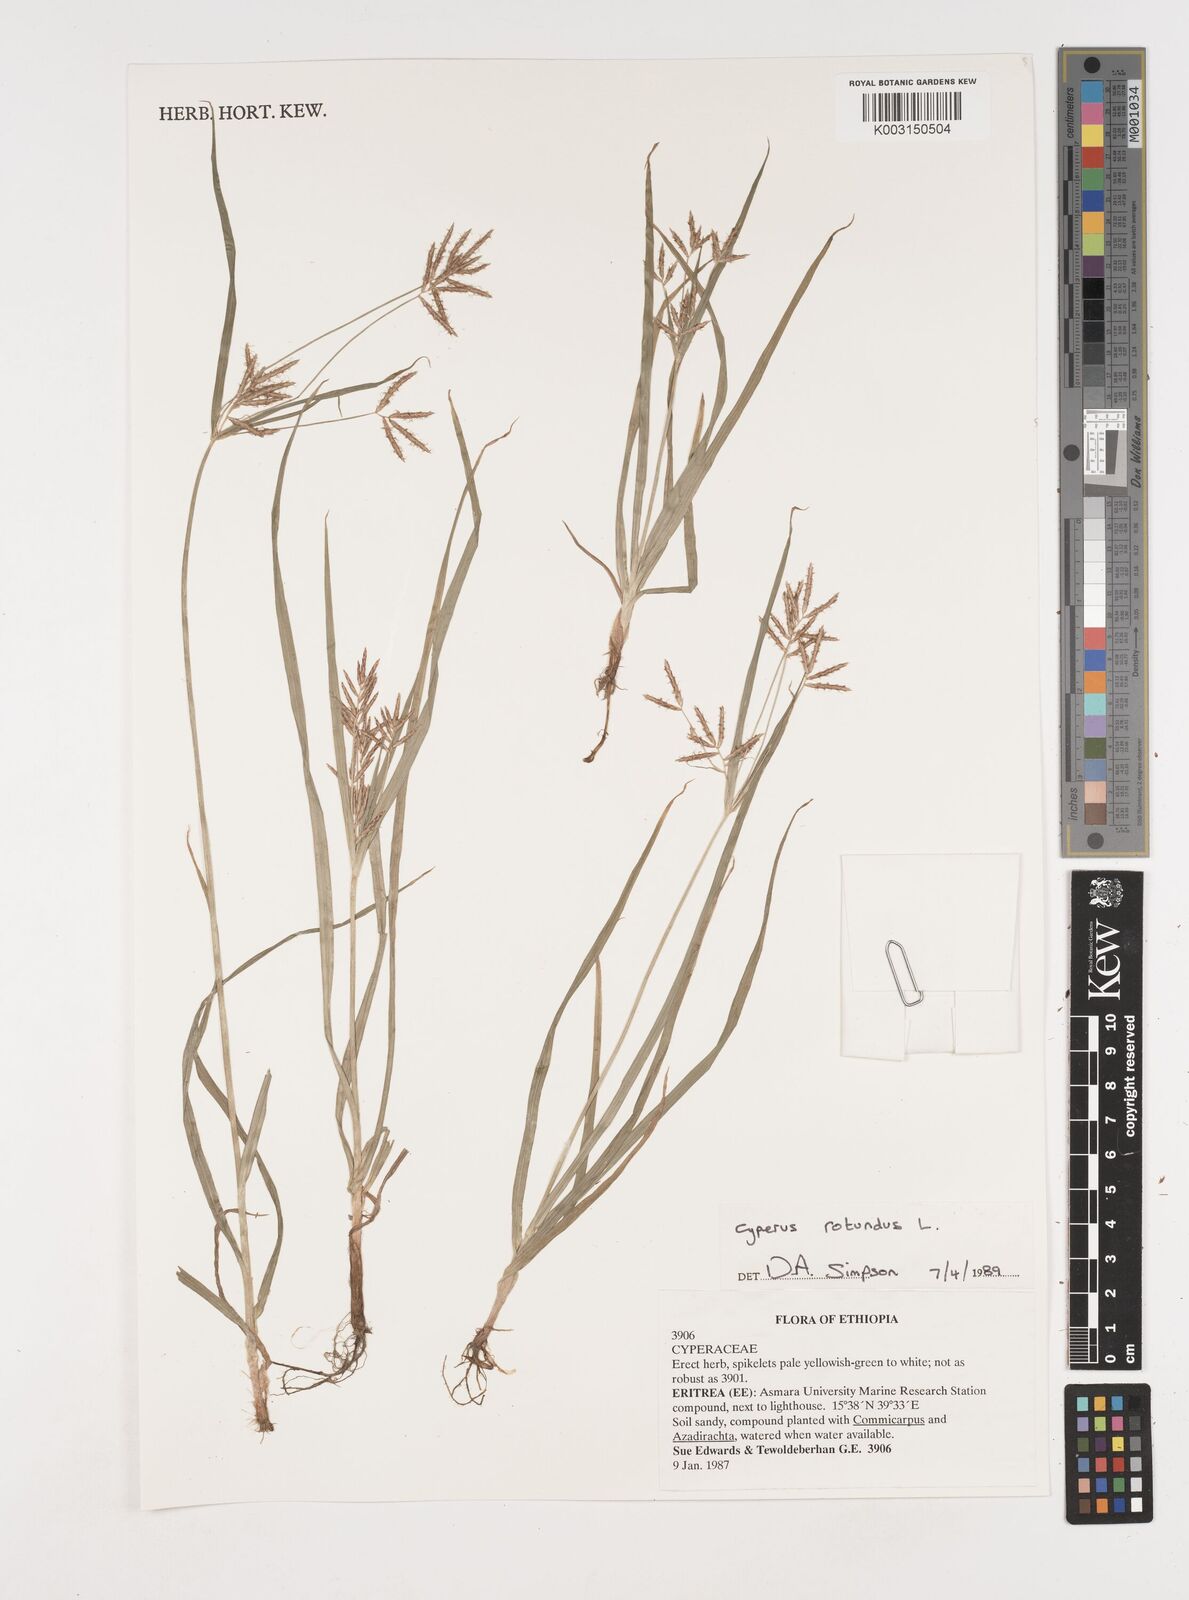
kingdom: Plantae
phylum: Tracheophyta
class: Liliopsida
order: Poales
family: Cyperaceae
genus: Cyperus
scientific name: Cyperus rotundus
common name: Nutgrass
